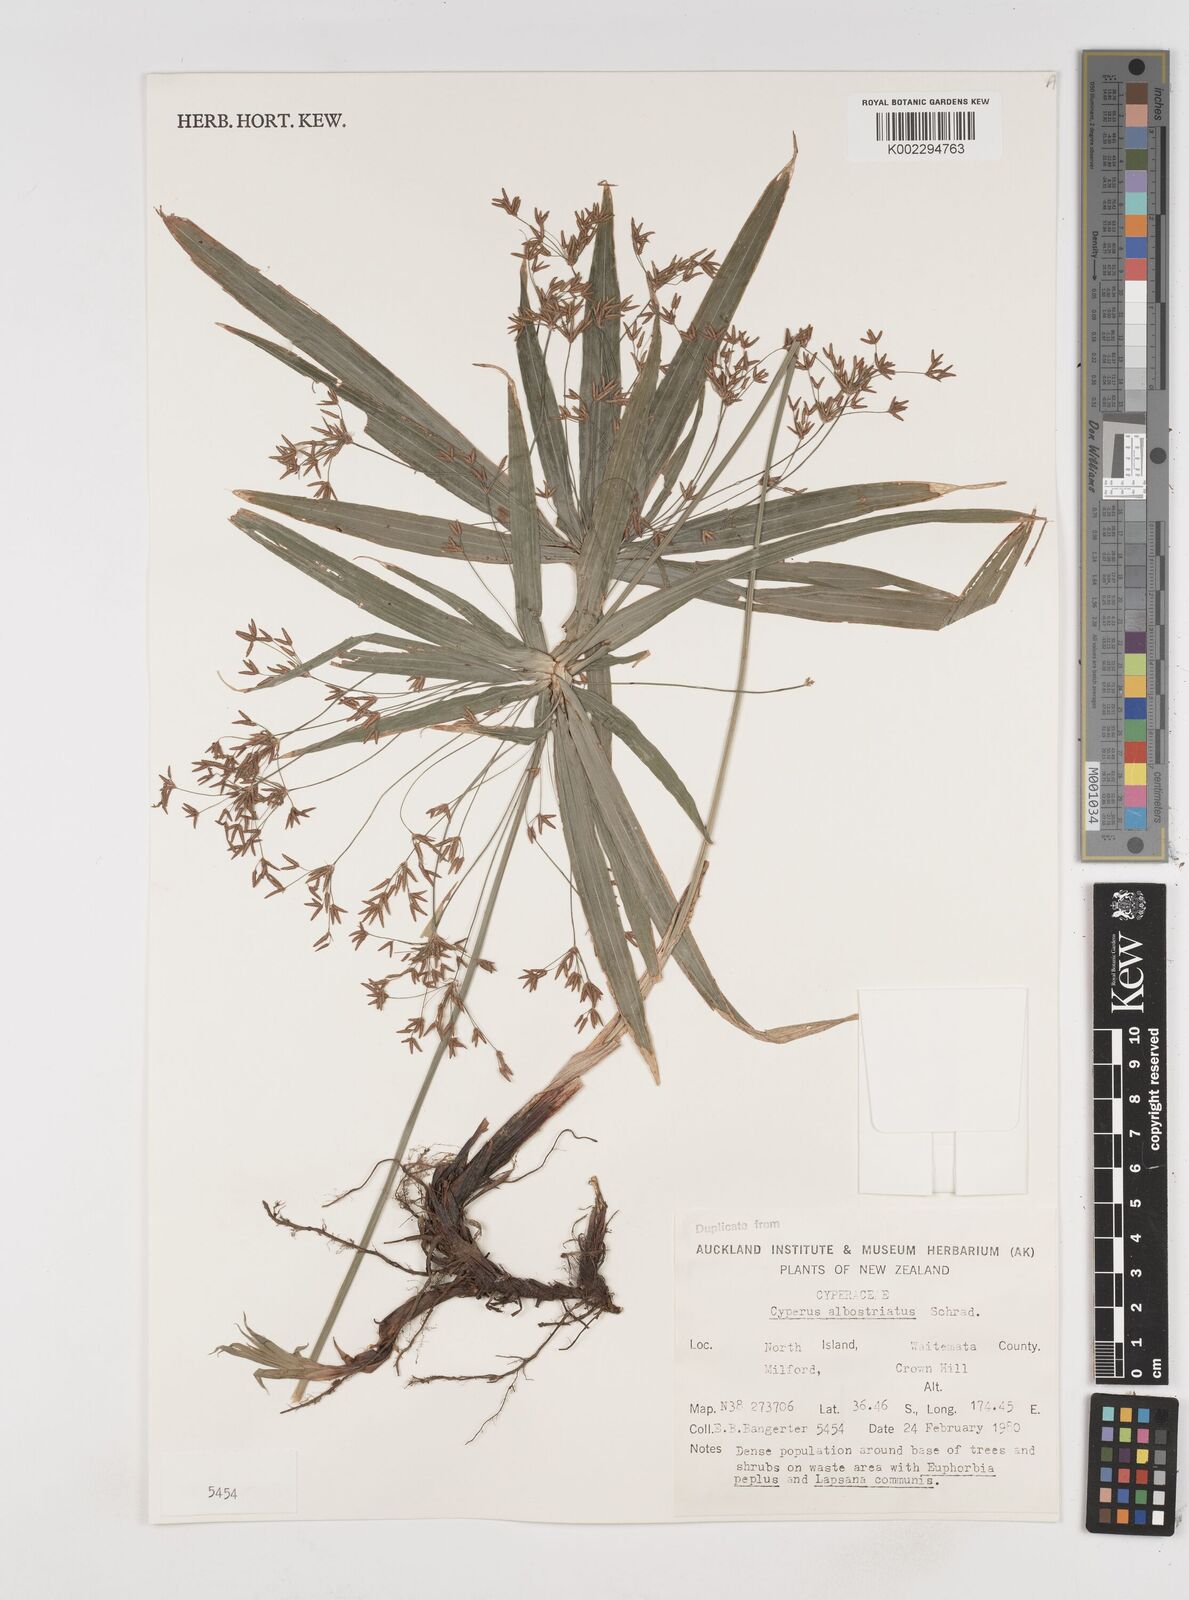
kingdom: Plantae
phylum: Tracheophyta
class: Liliopsida
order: Poales
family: Cyperaceae
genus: Cyperus
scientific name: Cyperus albostriatus
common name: Dwarf umbrella-grass
